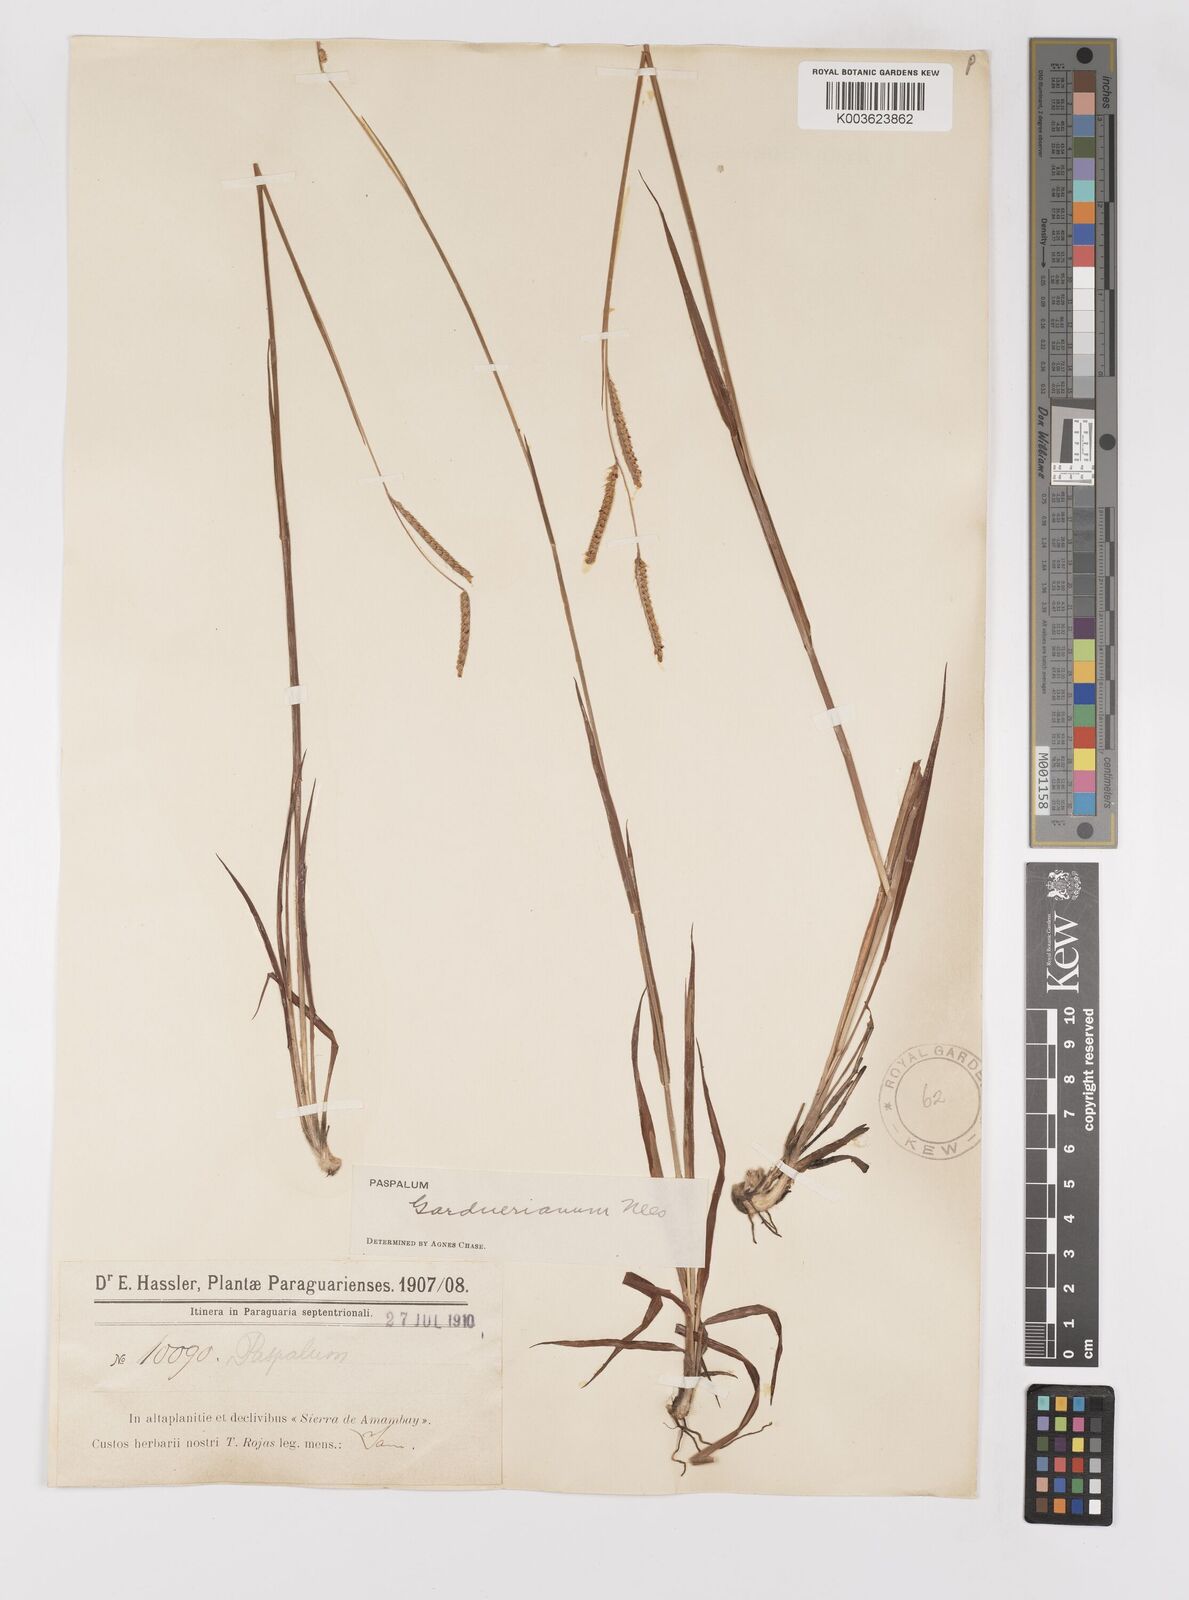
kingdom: Plantae
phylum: Tracheophyta
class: Liliopsida
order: Poales
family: Poaceae
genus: Paspalum
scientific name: Paspalum gardnerianum
